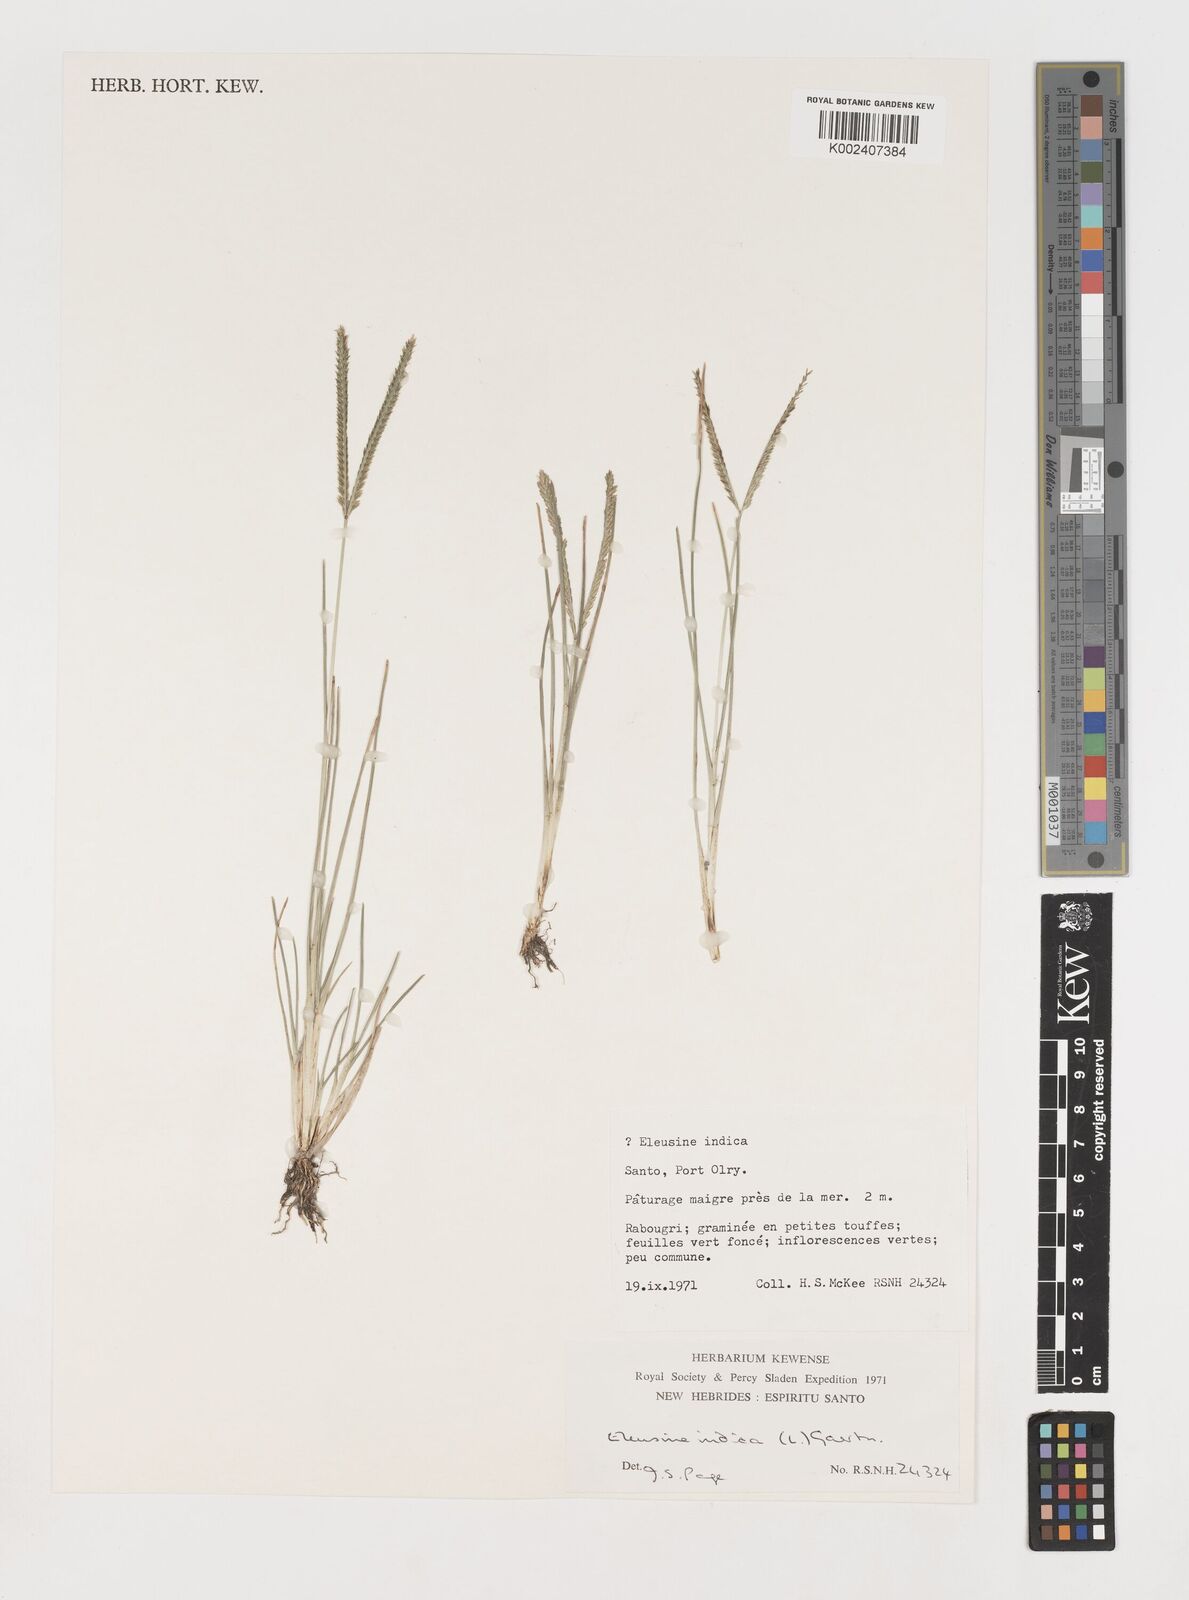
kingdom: Plantae
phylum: Tracheophyta
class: Liliopsida
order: Poales
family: Poaceae
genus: Eleusine
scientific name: Eleusine indica
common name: Yard-grass
